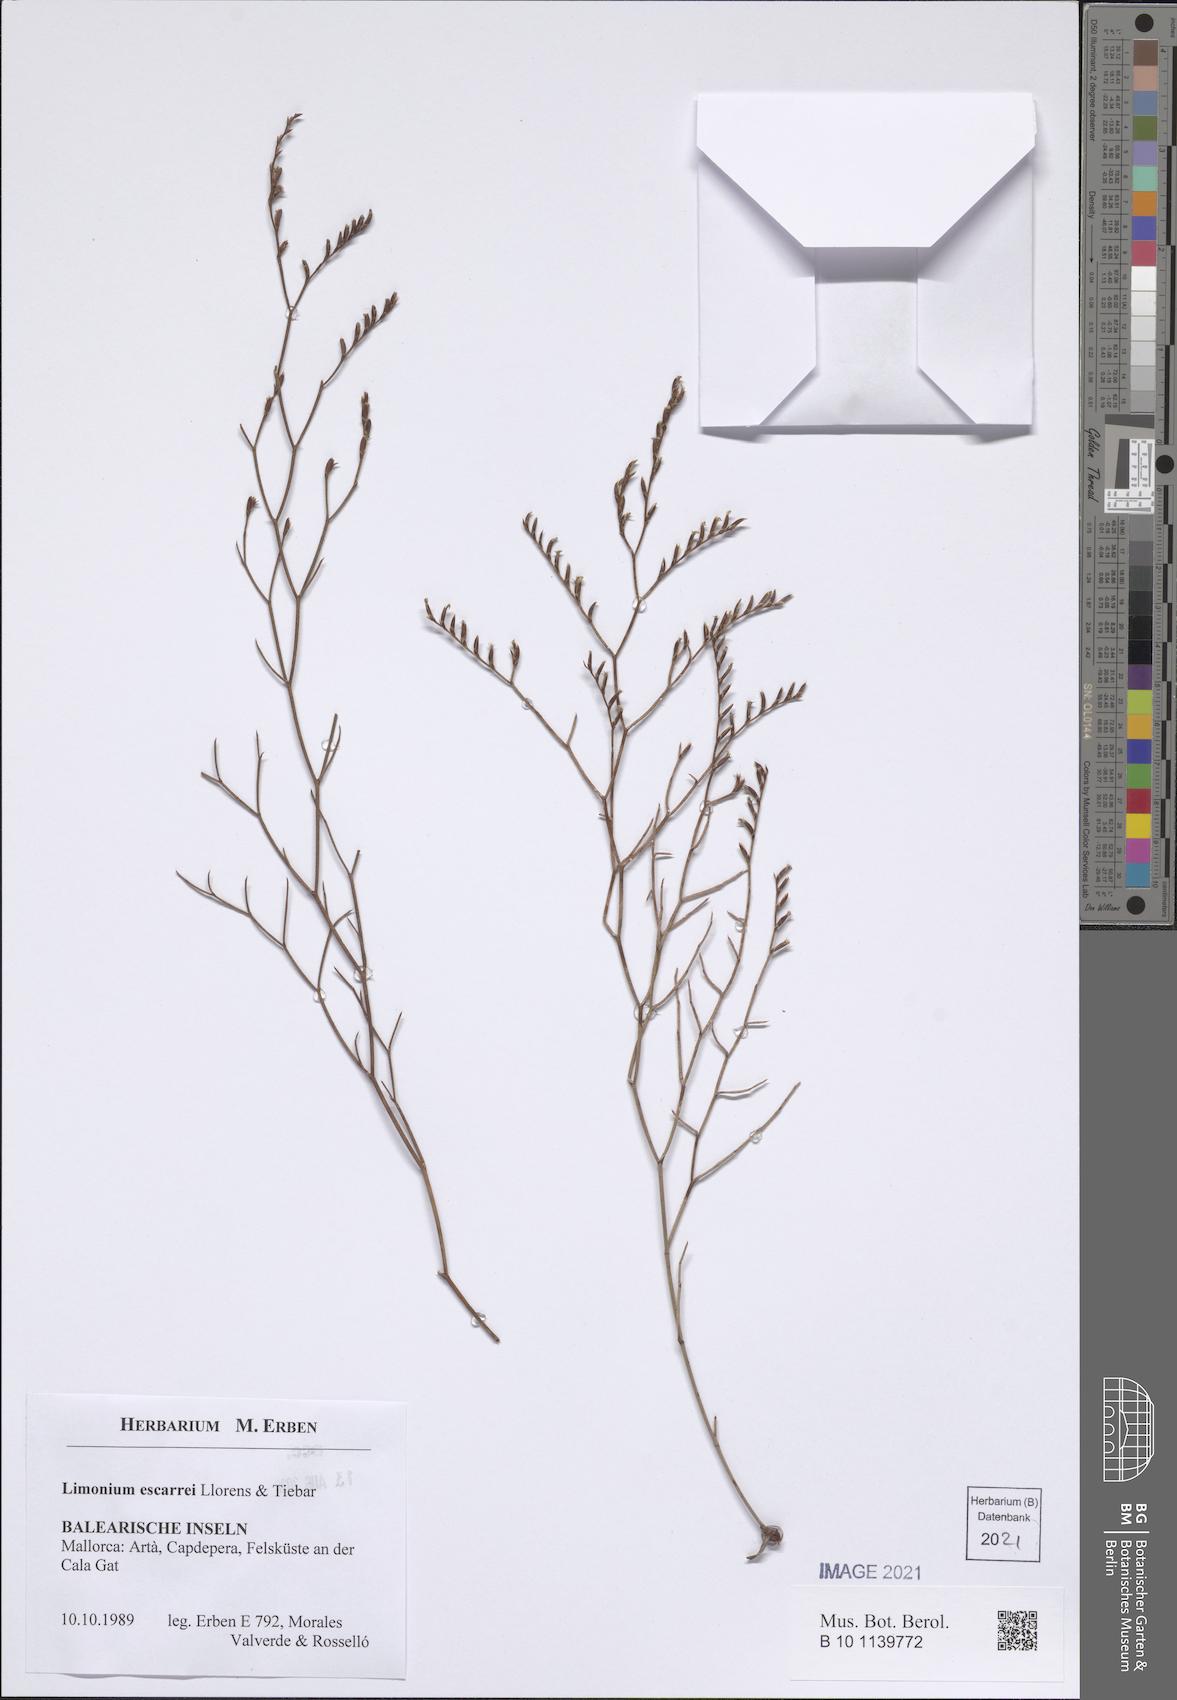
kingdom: Plantae
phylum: Tracheophyta
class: Magnoliopsida
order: Caryophyllales
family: Plumbaginaceae
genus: Limonium
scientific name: Limonium escarrei
